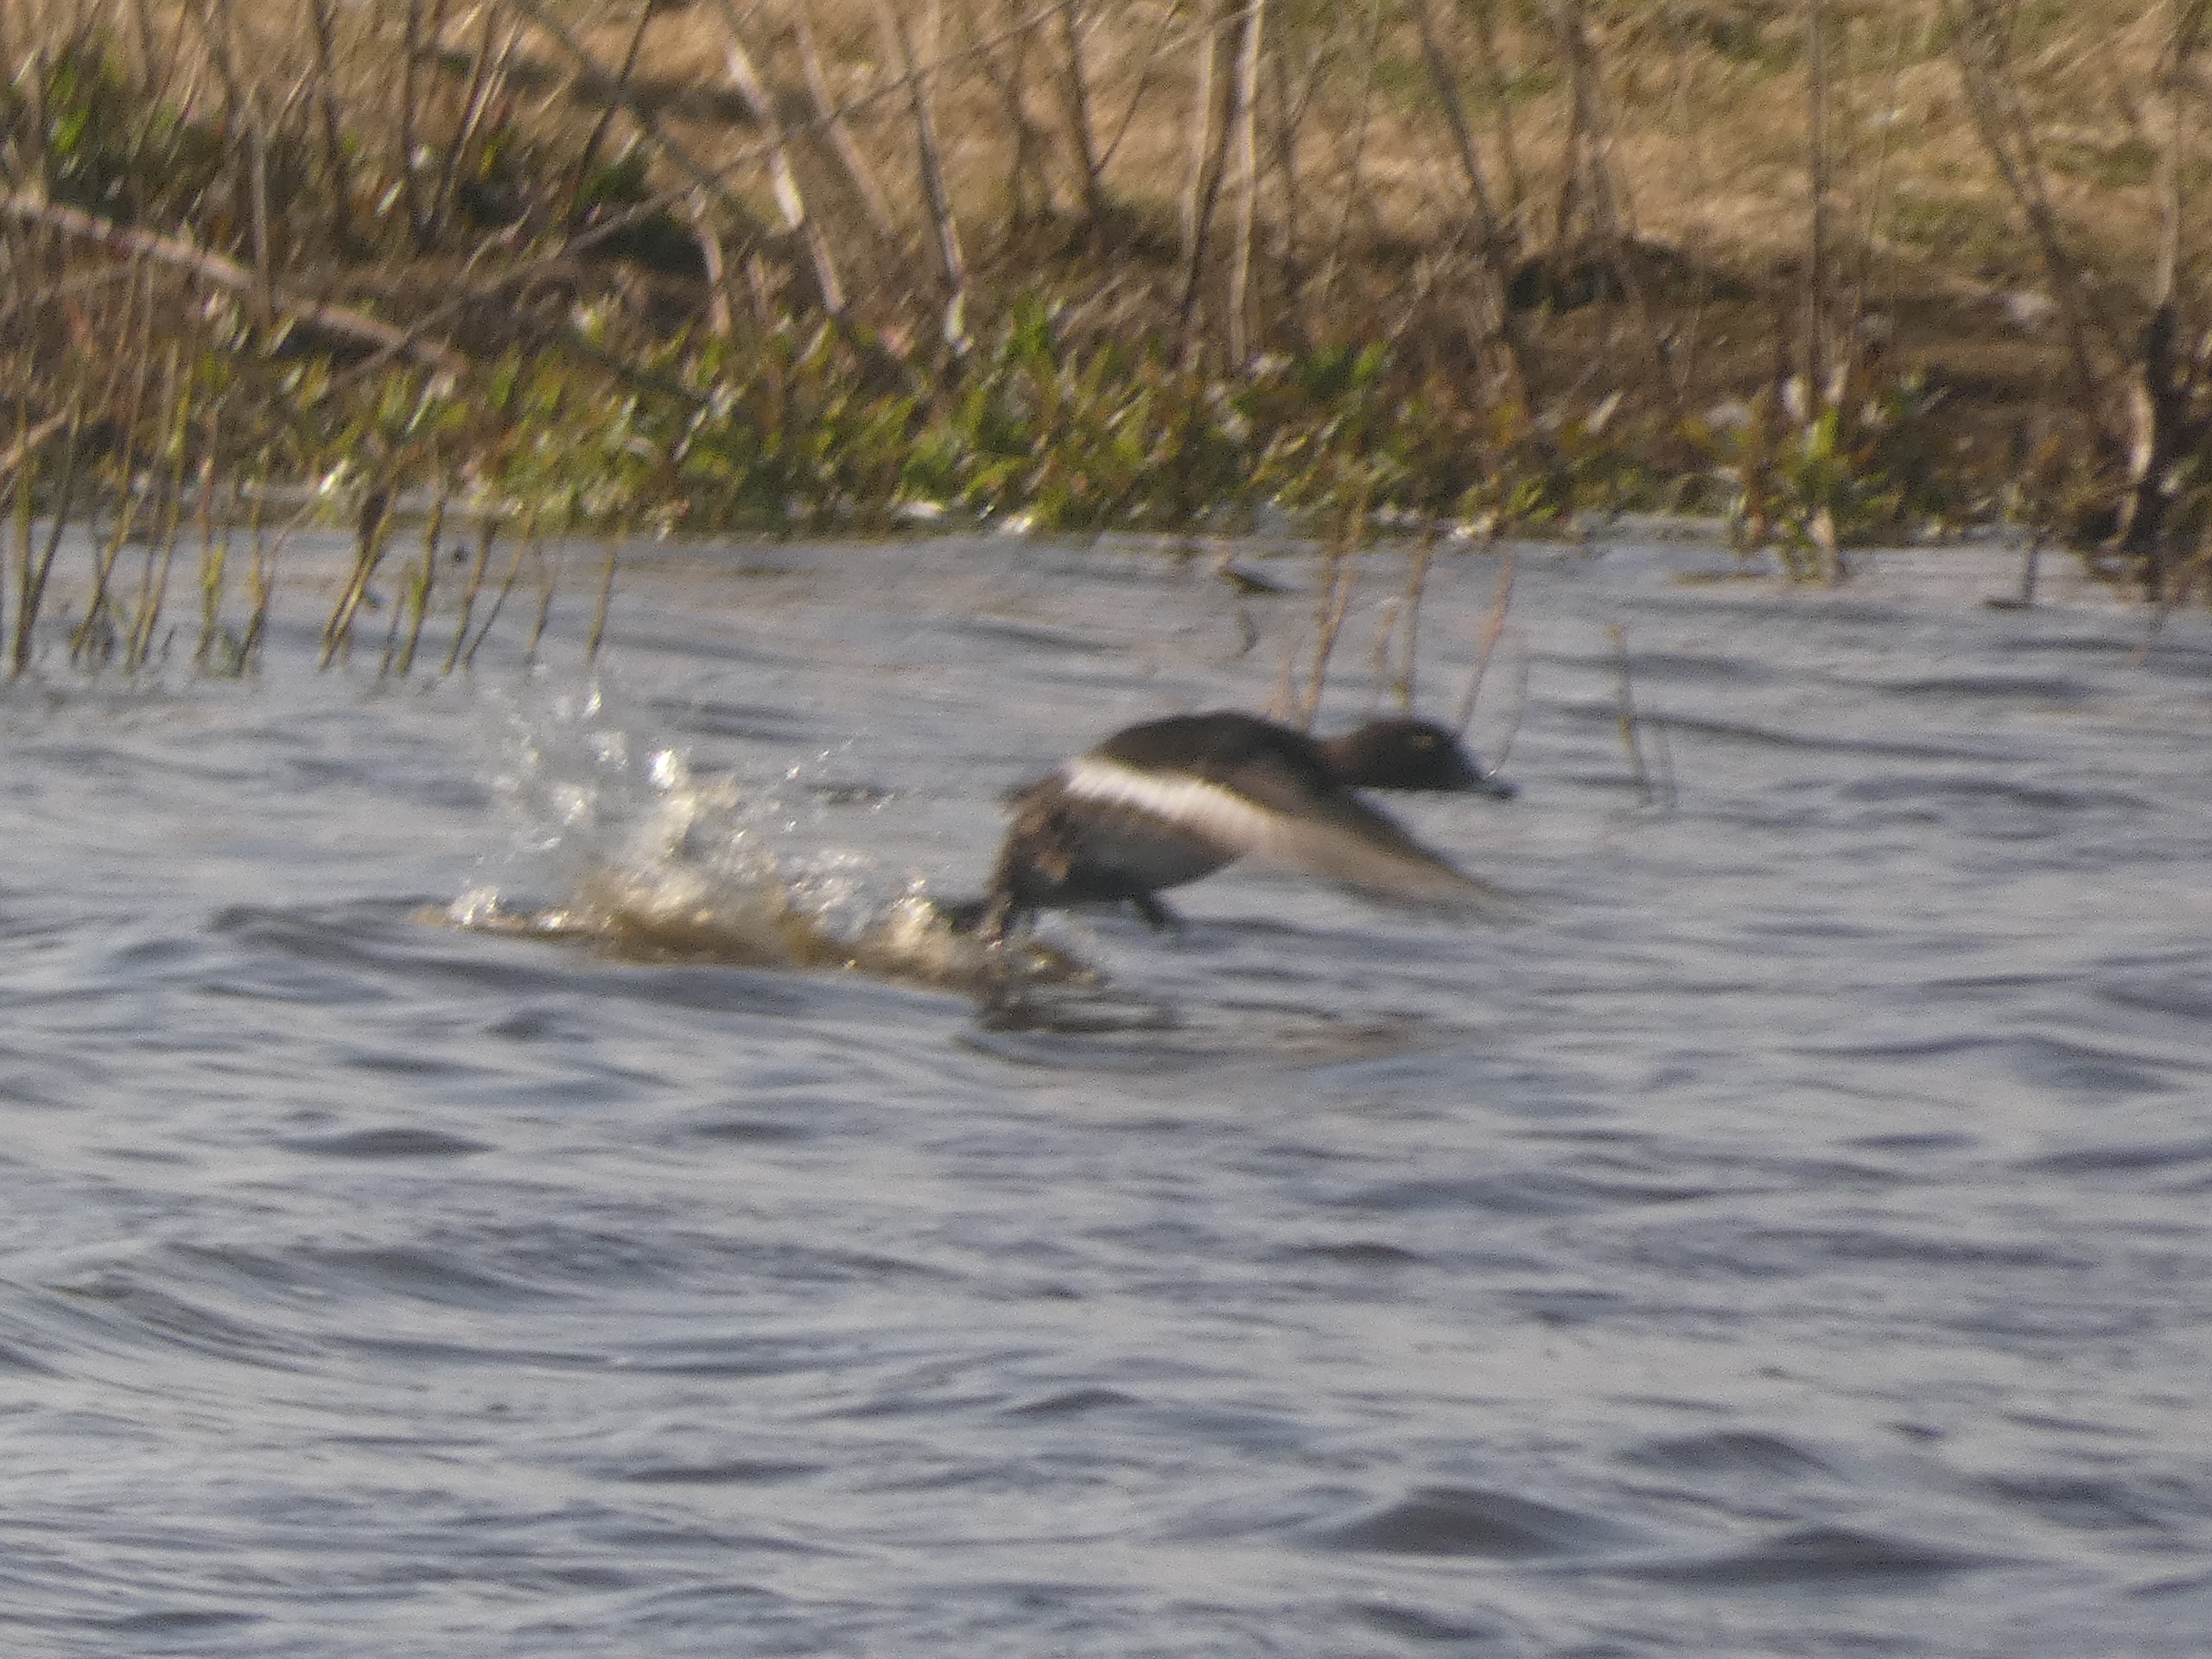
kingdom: Animalia
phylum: Chordata
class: Aves
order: Anseriformes
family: Anatidae
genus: Aythya
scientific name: Aythya fuligula
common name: Troldand
